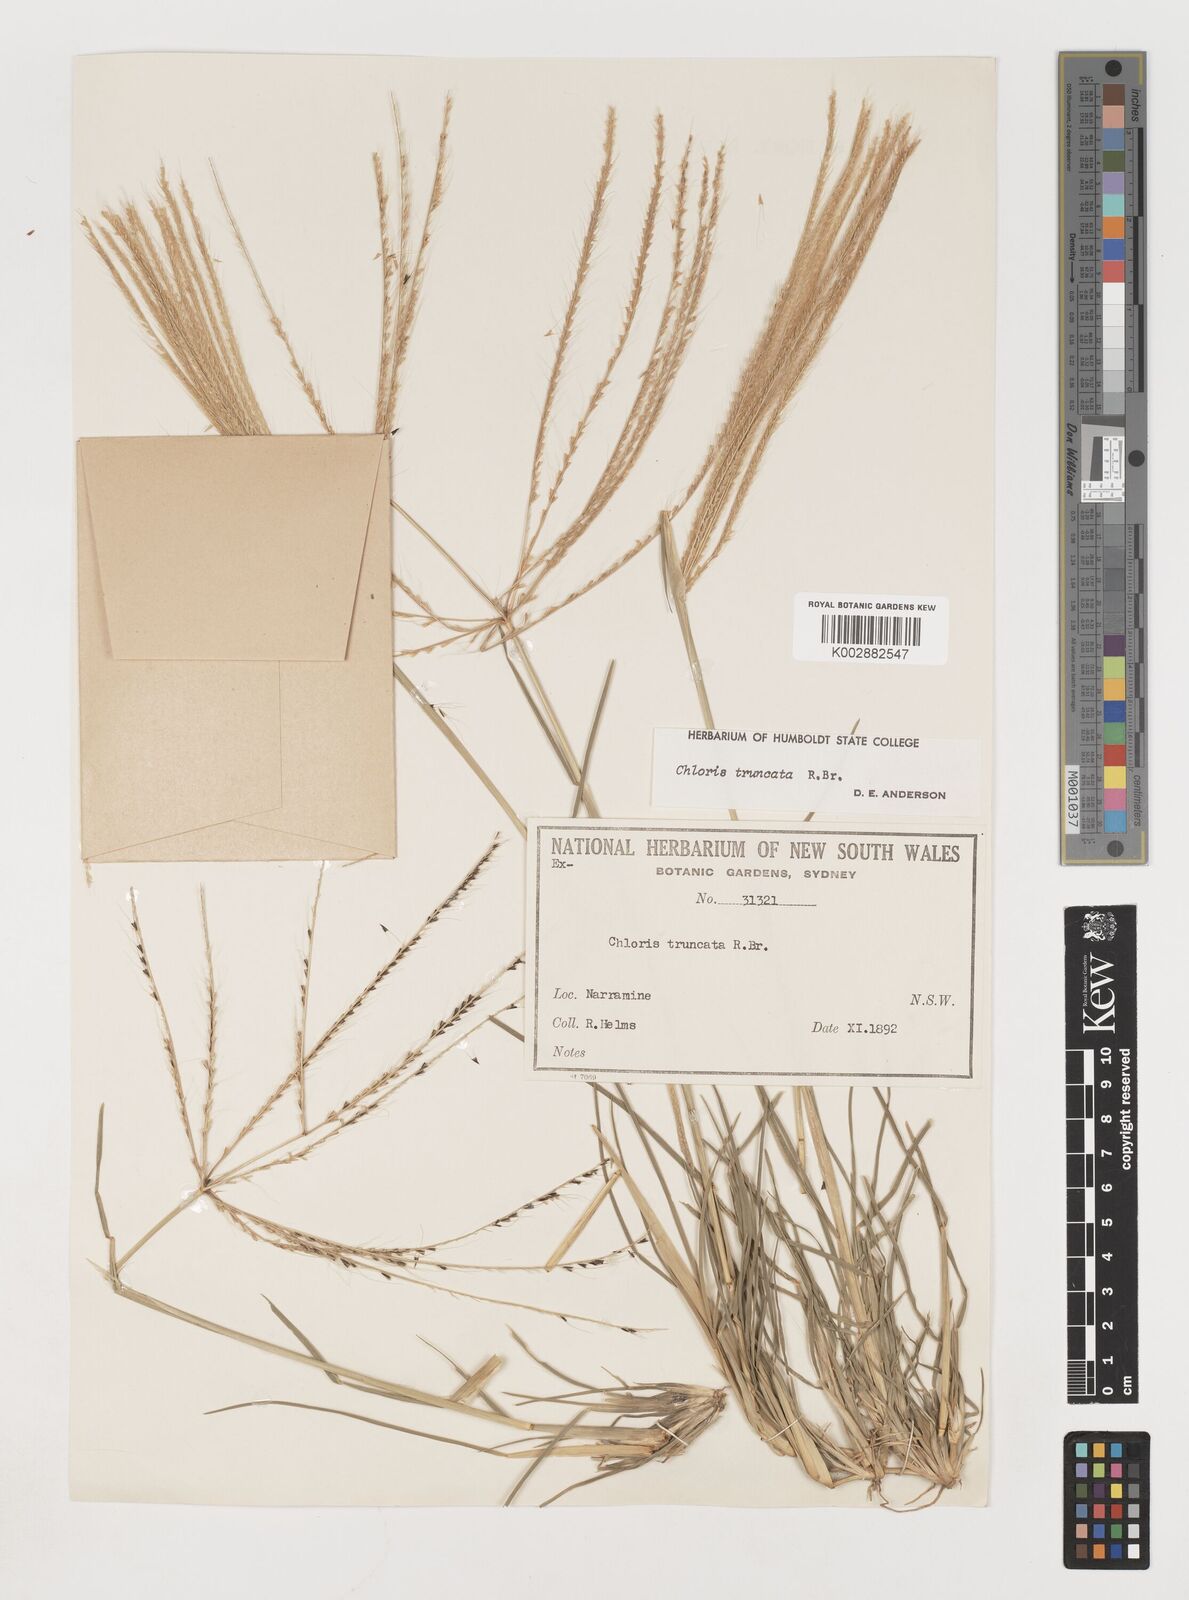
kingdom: Plantae
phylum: Tracheophyta
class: Liliopsida
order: Poales
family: Poaceae
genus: Chloris
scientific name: Chloris truncata
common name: Windmill-grass
